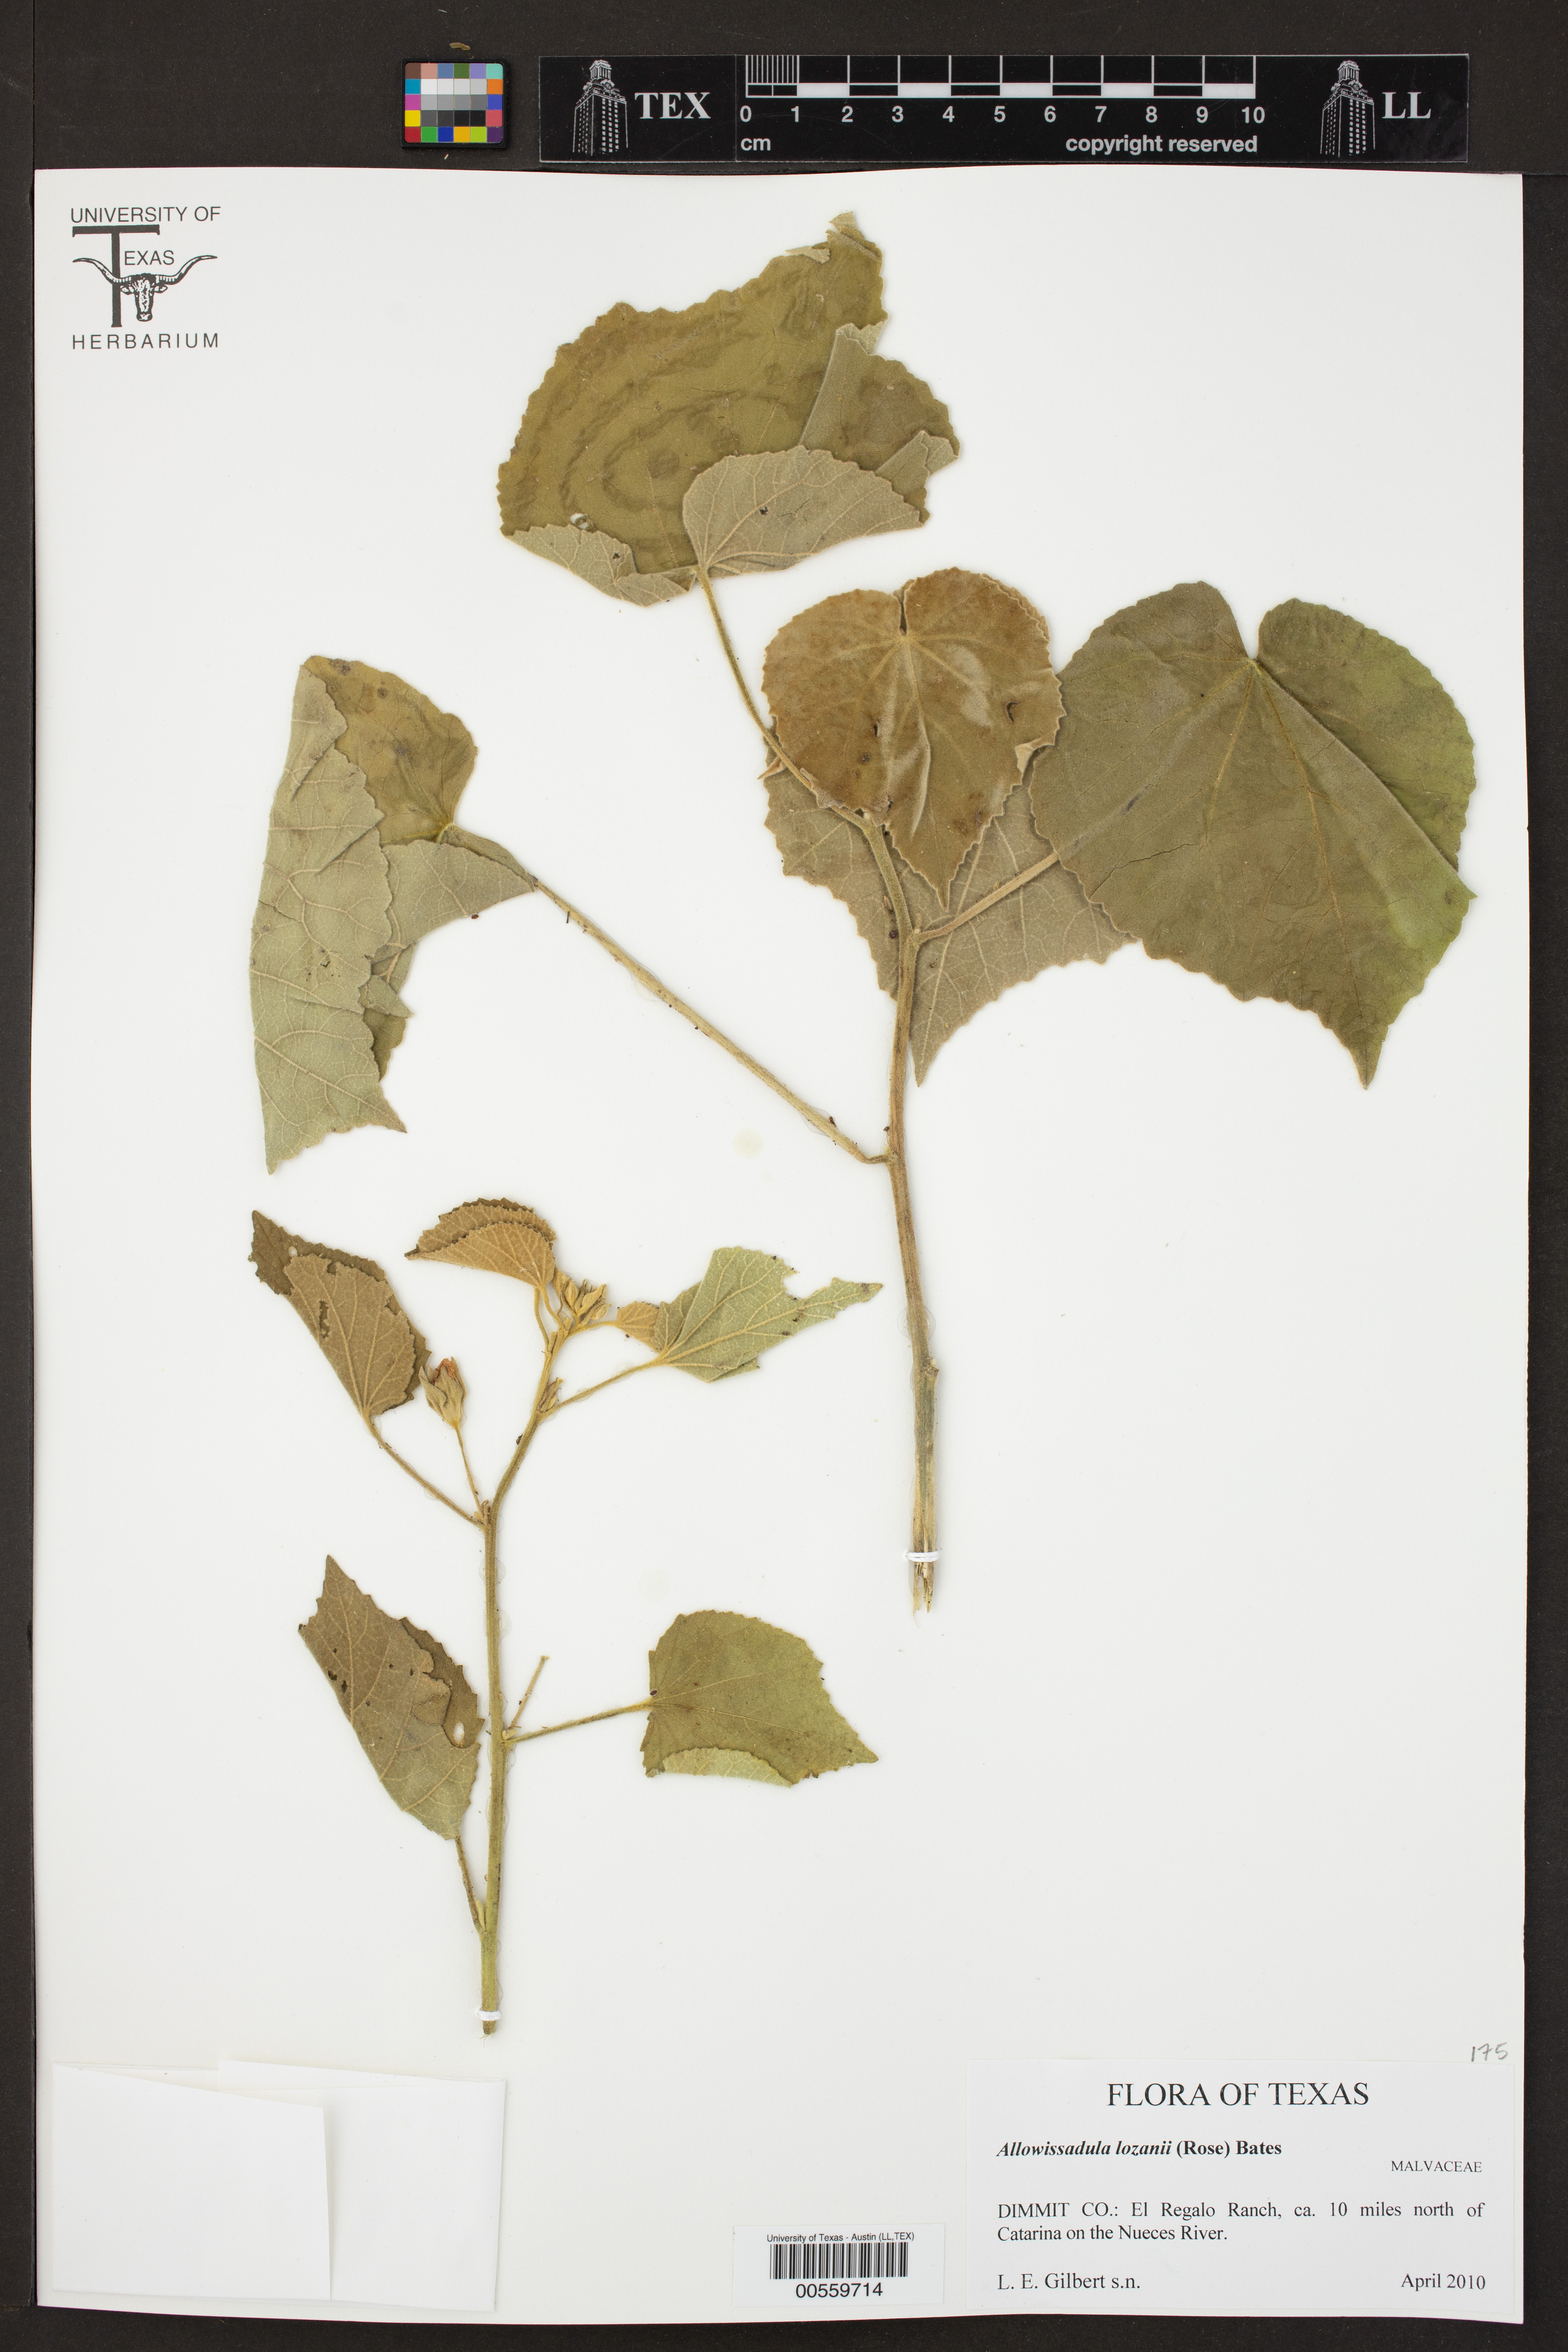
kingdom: Plantae
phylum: Tracheophyta
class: Magnoliopsida
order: Malvales
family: Malvaceae
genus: Allowissadula
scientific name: Allowissadula lozanii
